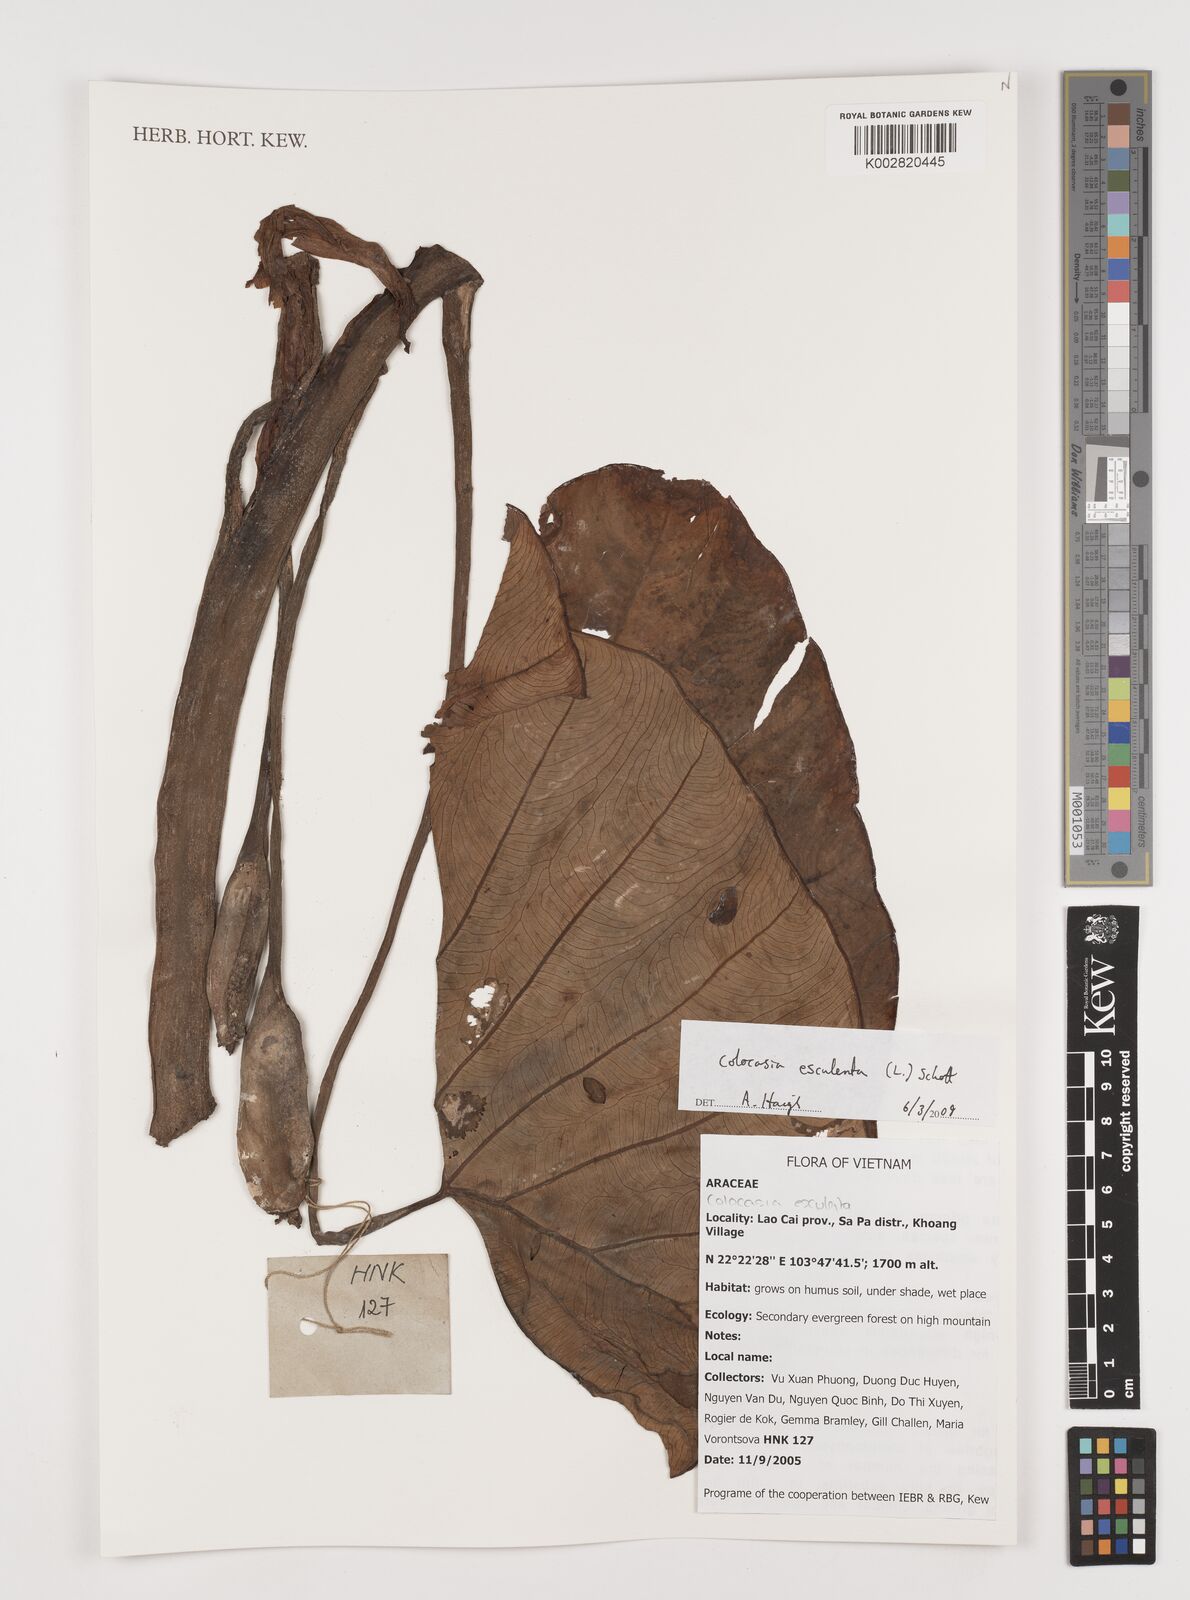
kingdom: Plantae
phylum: Tracheophyta
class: Liliopsida
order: Alismatales
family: Araceae
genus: Colocasia
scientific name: Colocasia esculenta
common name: Taro
